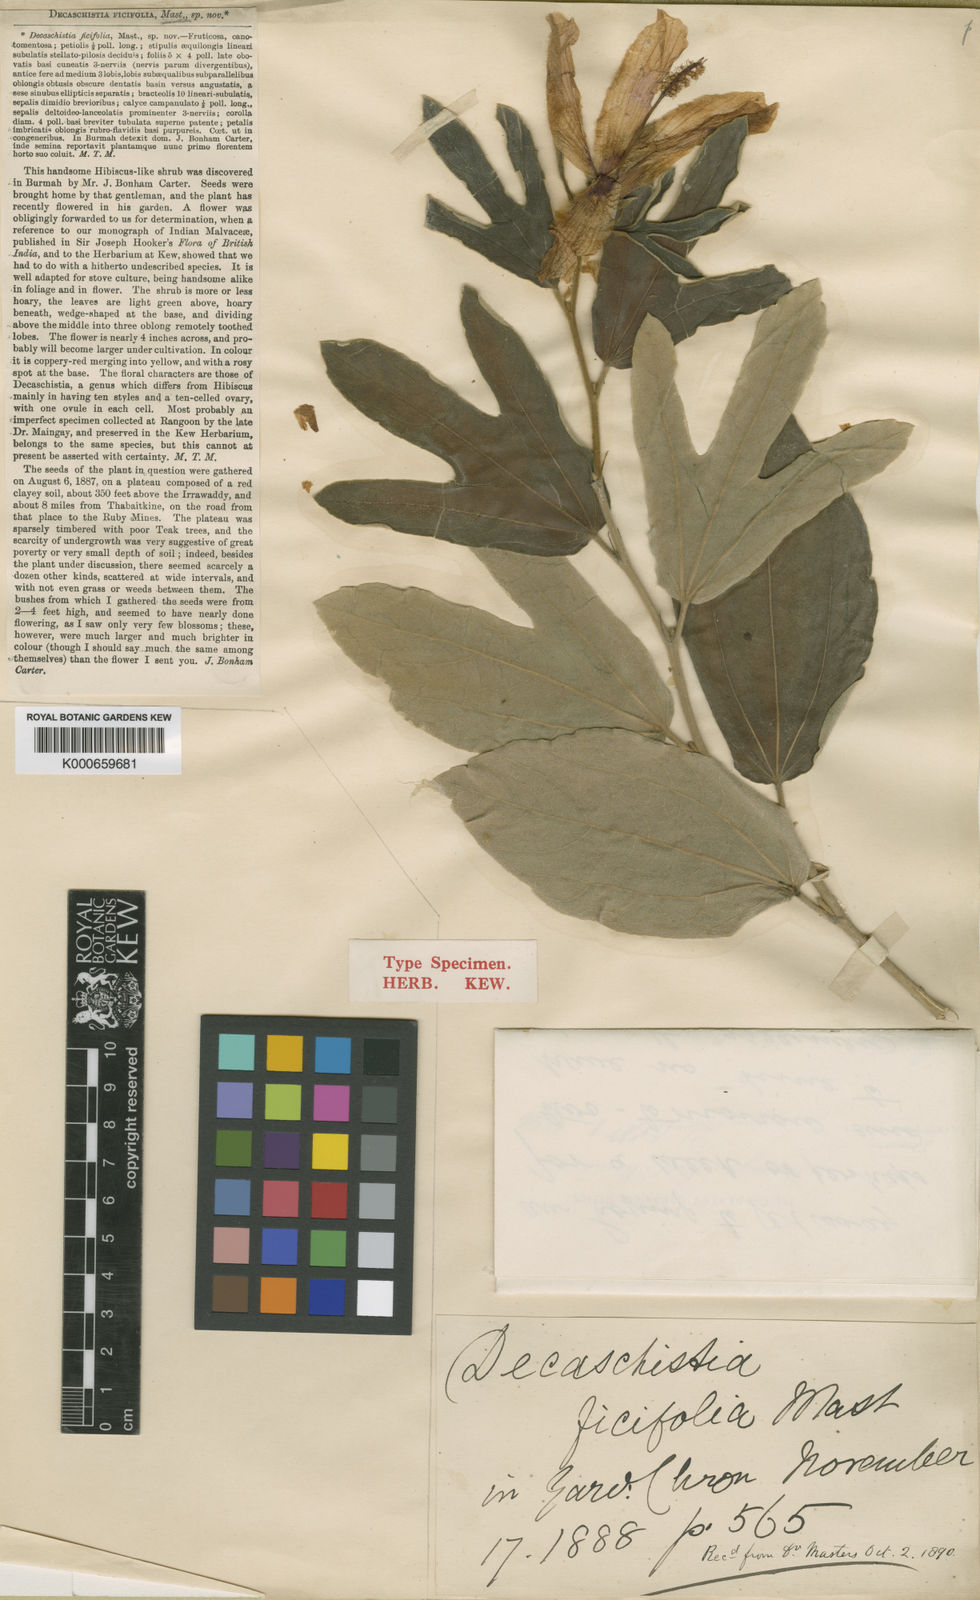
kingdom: Plantae
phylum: Tracheophyta
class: Magnoliopsida
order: Malvales
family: Malvaceae
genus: Decaschistia
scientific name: Decaschistia ficifolia
